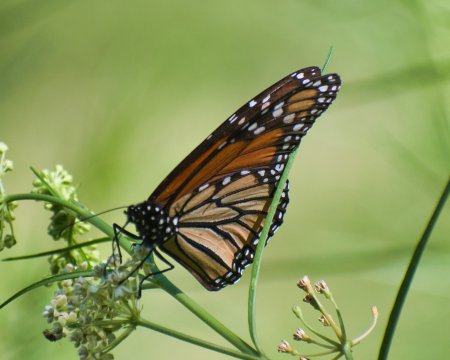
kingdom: Animalia
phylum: Arthropoda
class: Insecta
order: Lepidoptera
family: Nymphalidae
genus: Danaus
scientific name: Danaus plexippus
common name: Monarch
